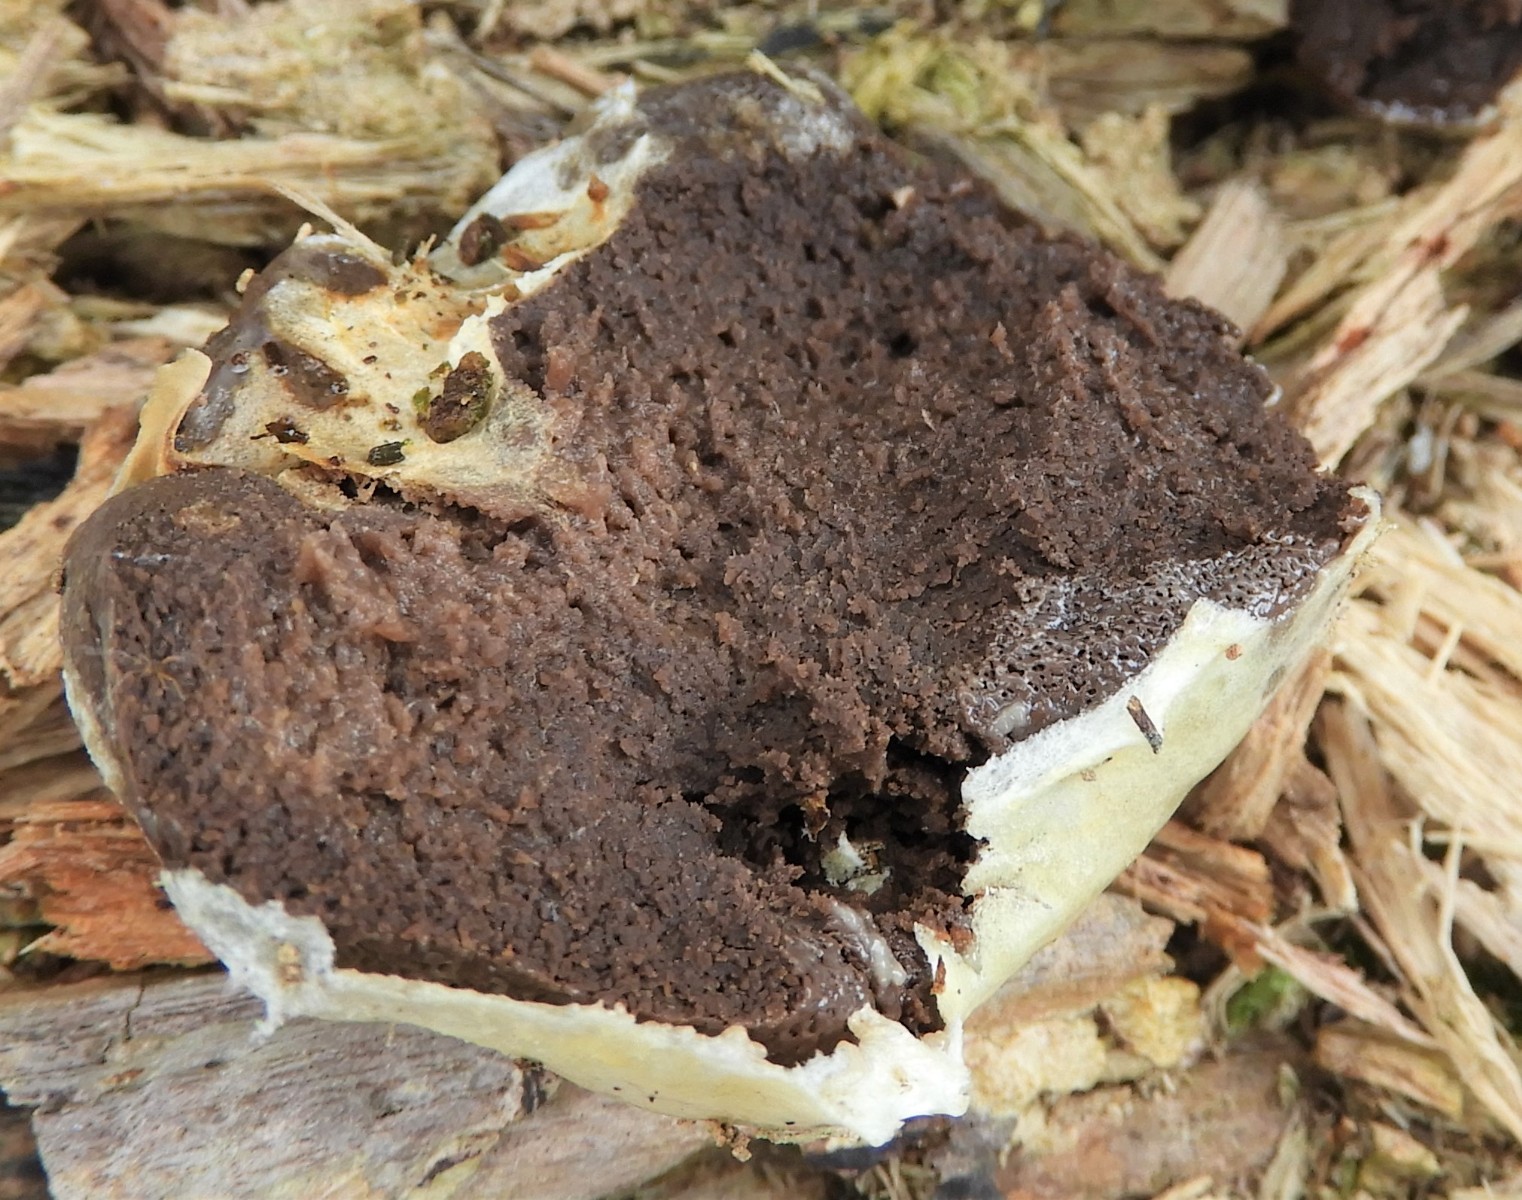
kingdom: Protozoa
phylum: Mycetozoa
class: Myxomycetes
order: Cribrariales
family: Tubiferaceae
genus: Reticularia
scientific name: Reticularia lycoperdon
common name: skinnende støvpude
